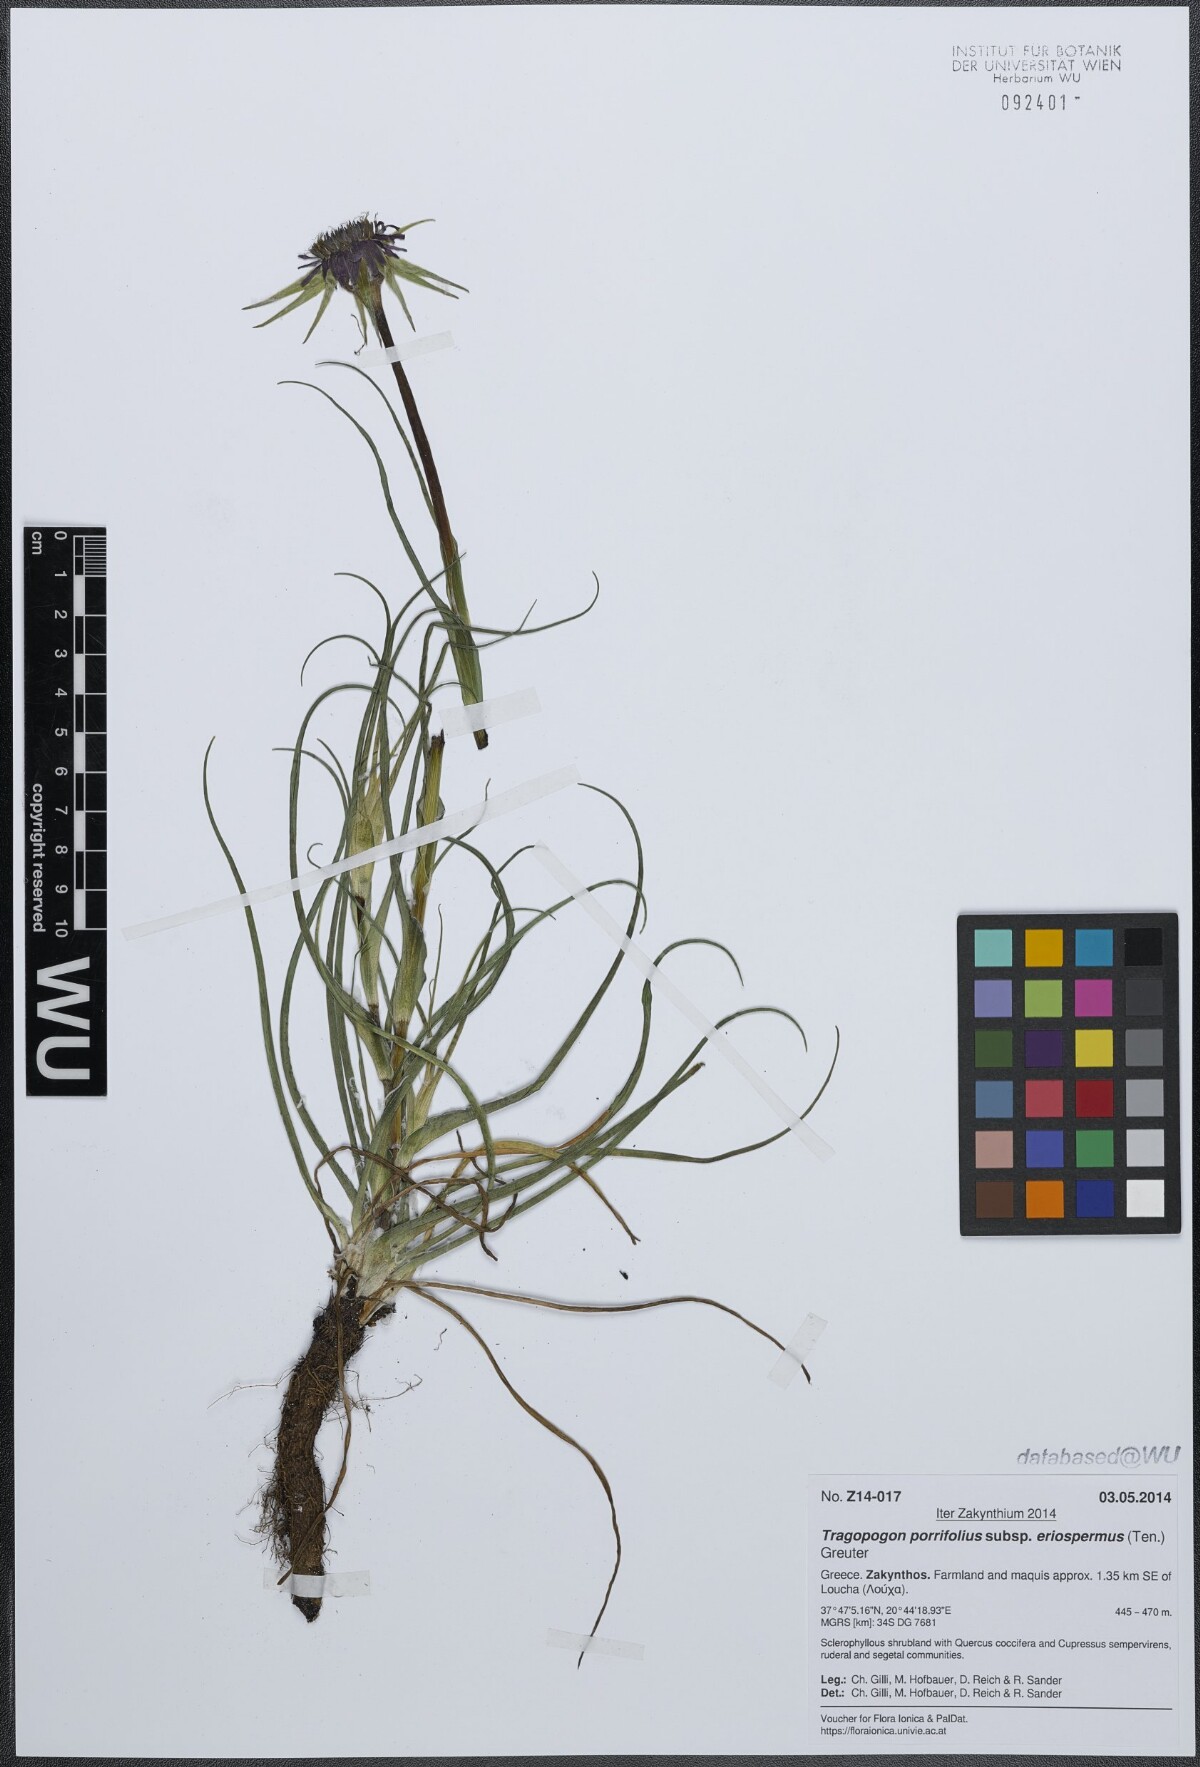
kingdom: Plantae
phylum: Tracheophyta
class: Magnoliopsida
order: Asterales
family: Asteraceae
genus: Tragopogon
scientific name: Tragopogon porrifolius
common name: Salsify
